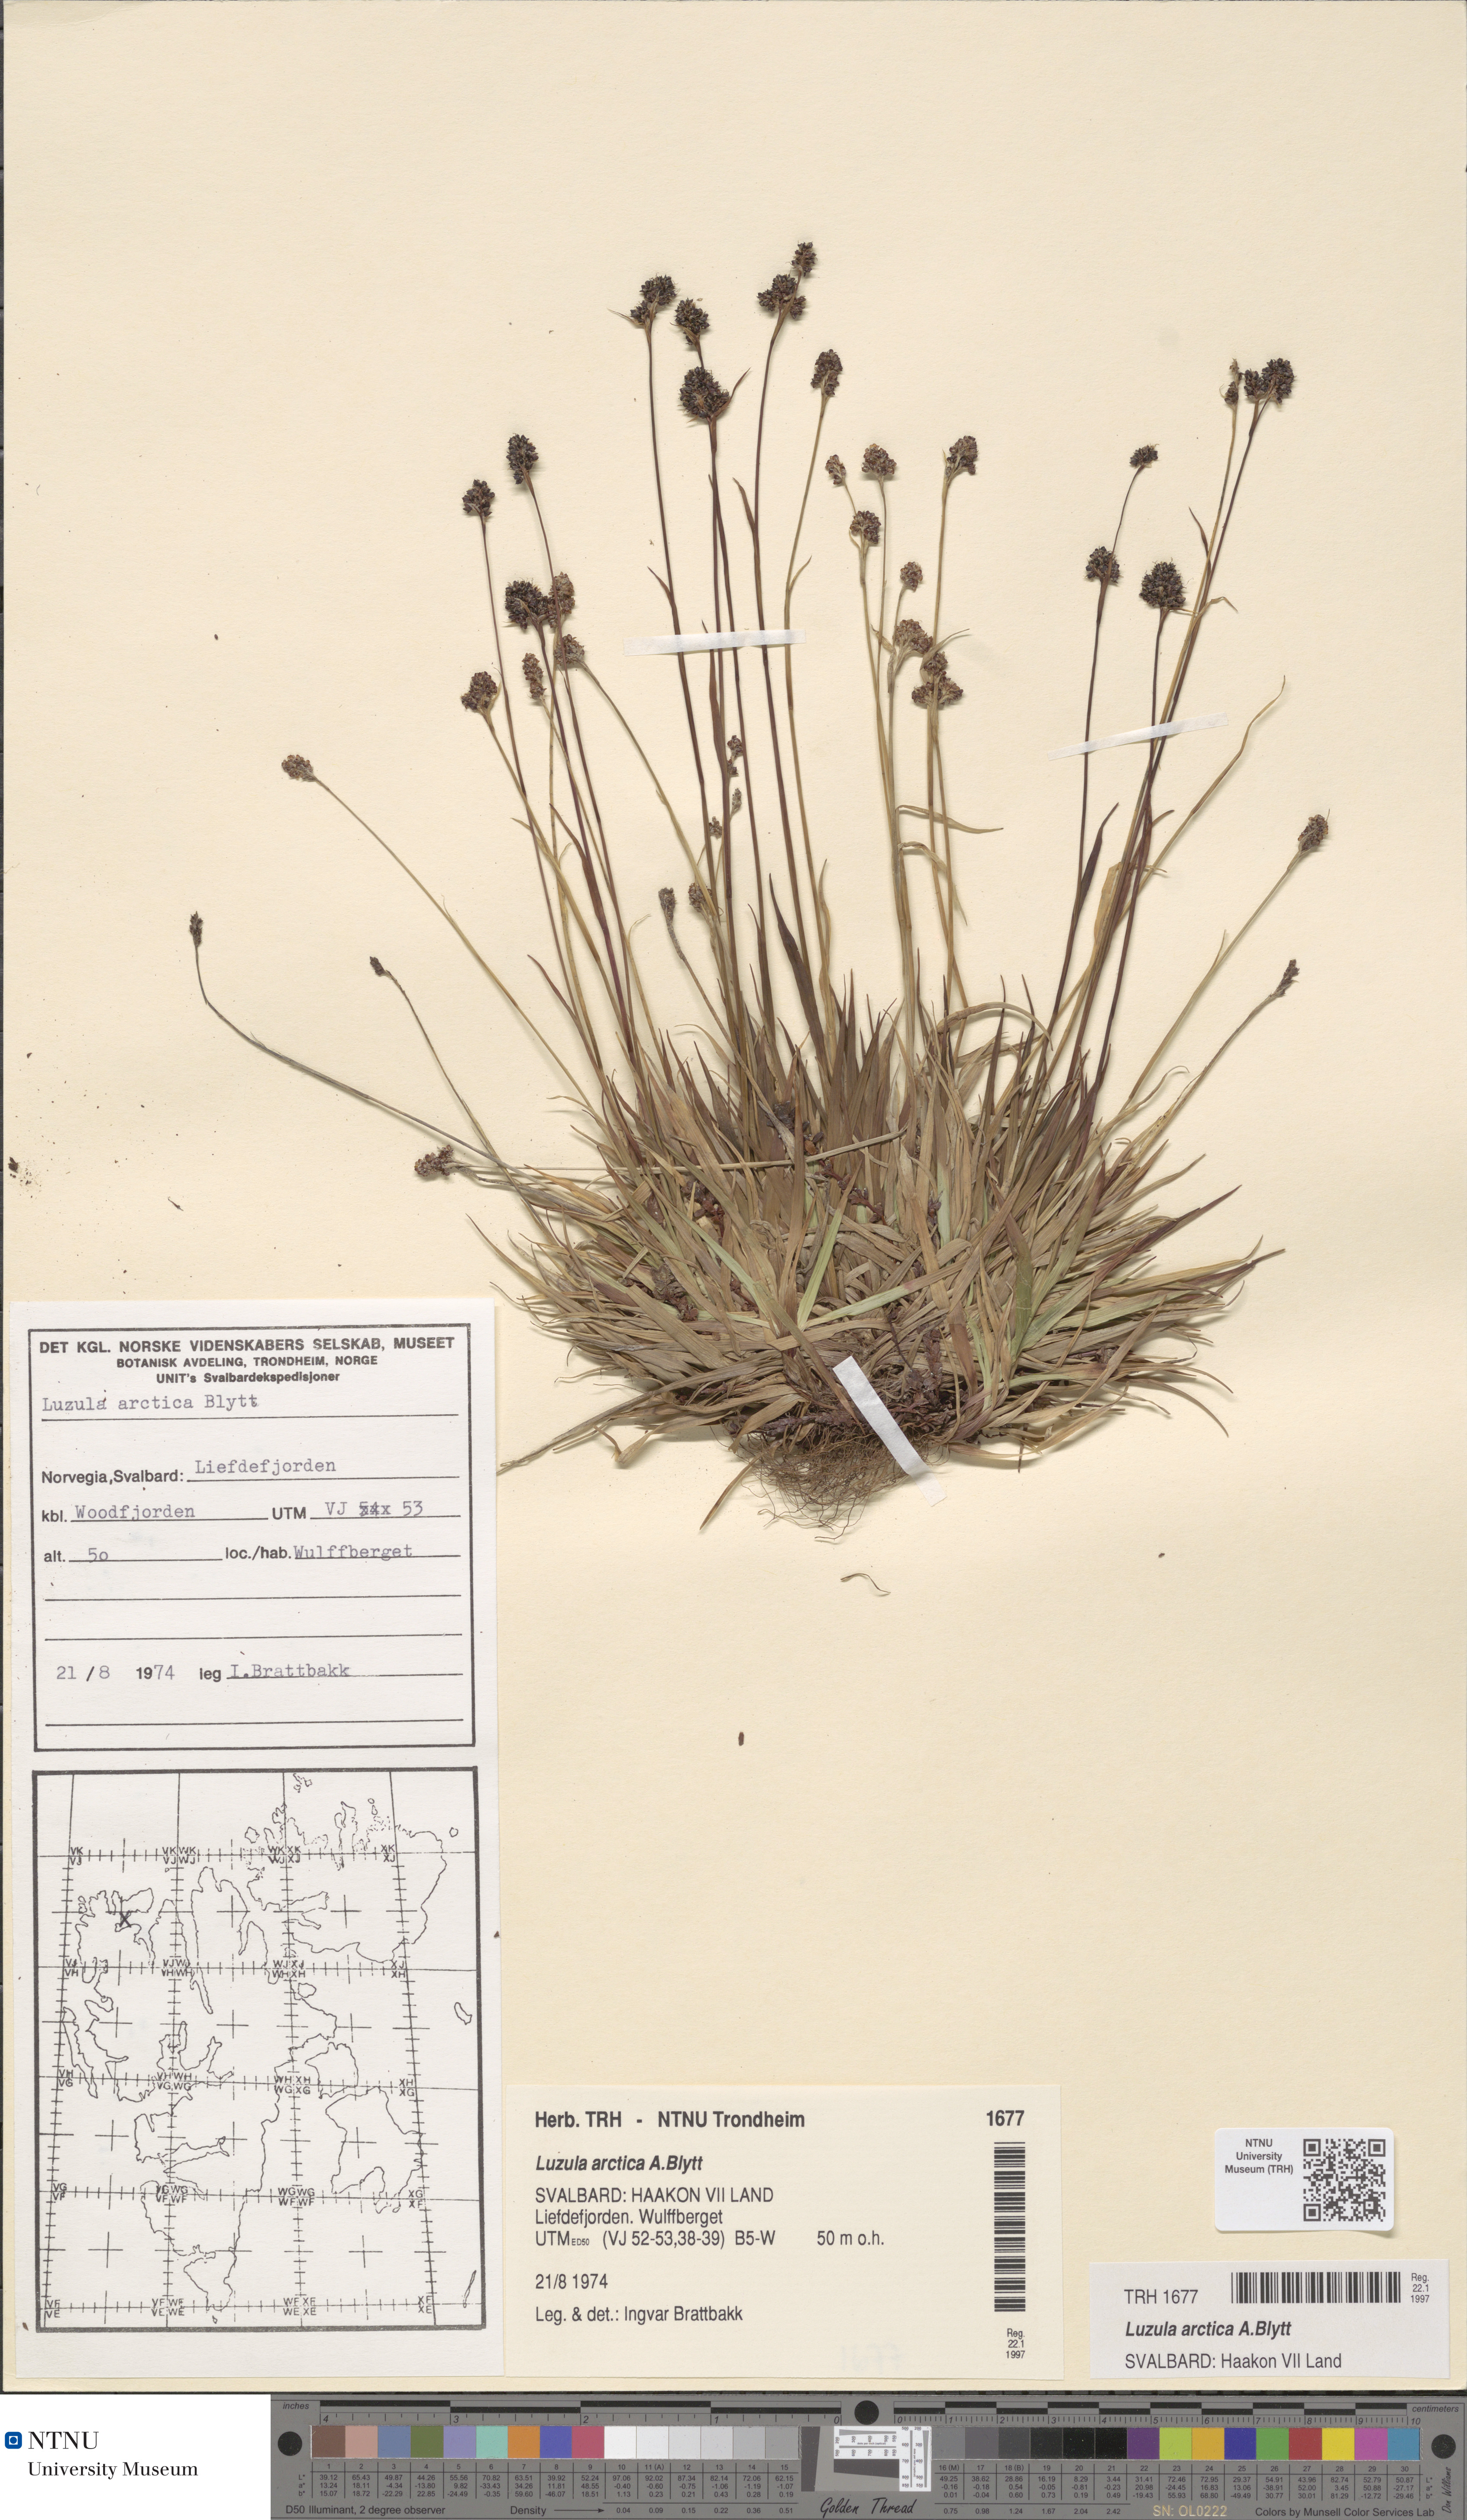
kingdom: Plantae
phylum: Tracheophyta
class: Liliopsida
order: Poales
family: Juncaceae
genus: Luzula
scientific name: Luzula nivalis
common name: Arctic woodrush
